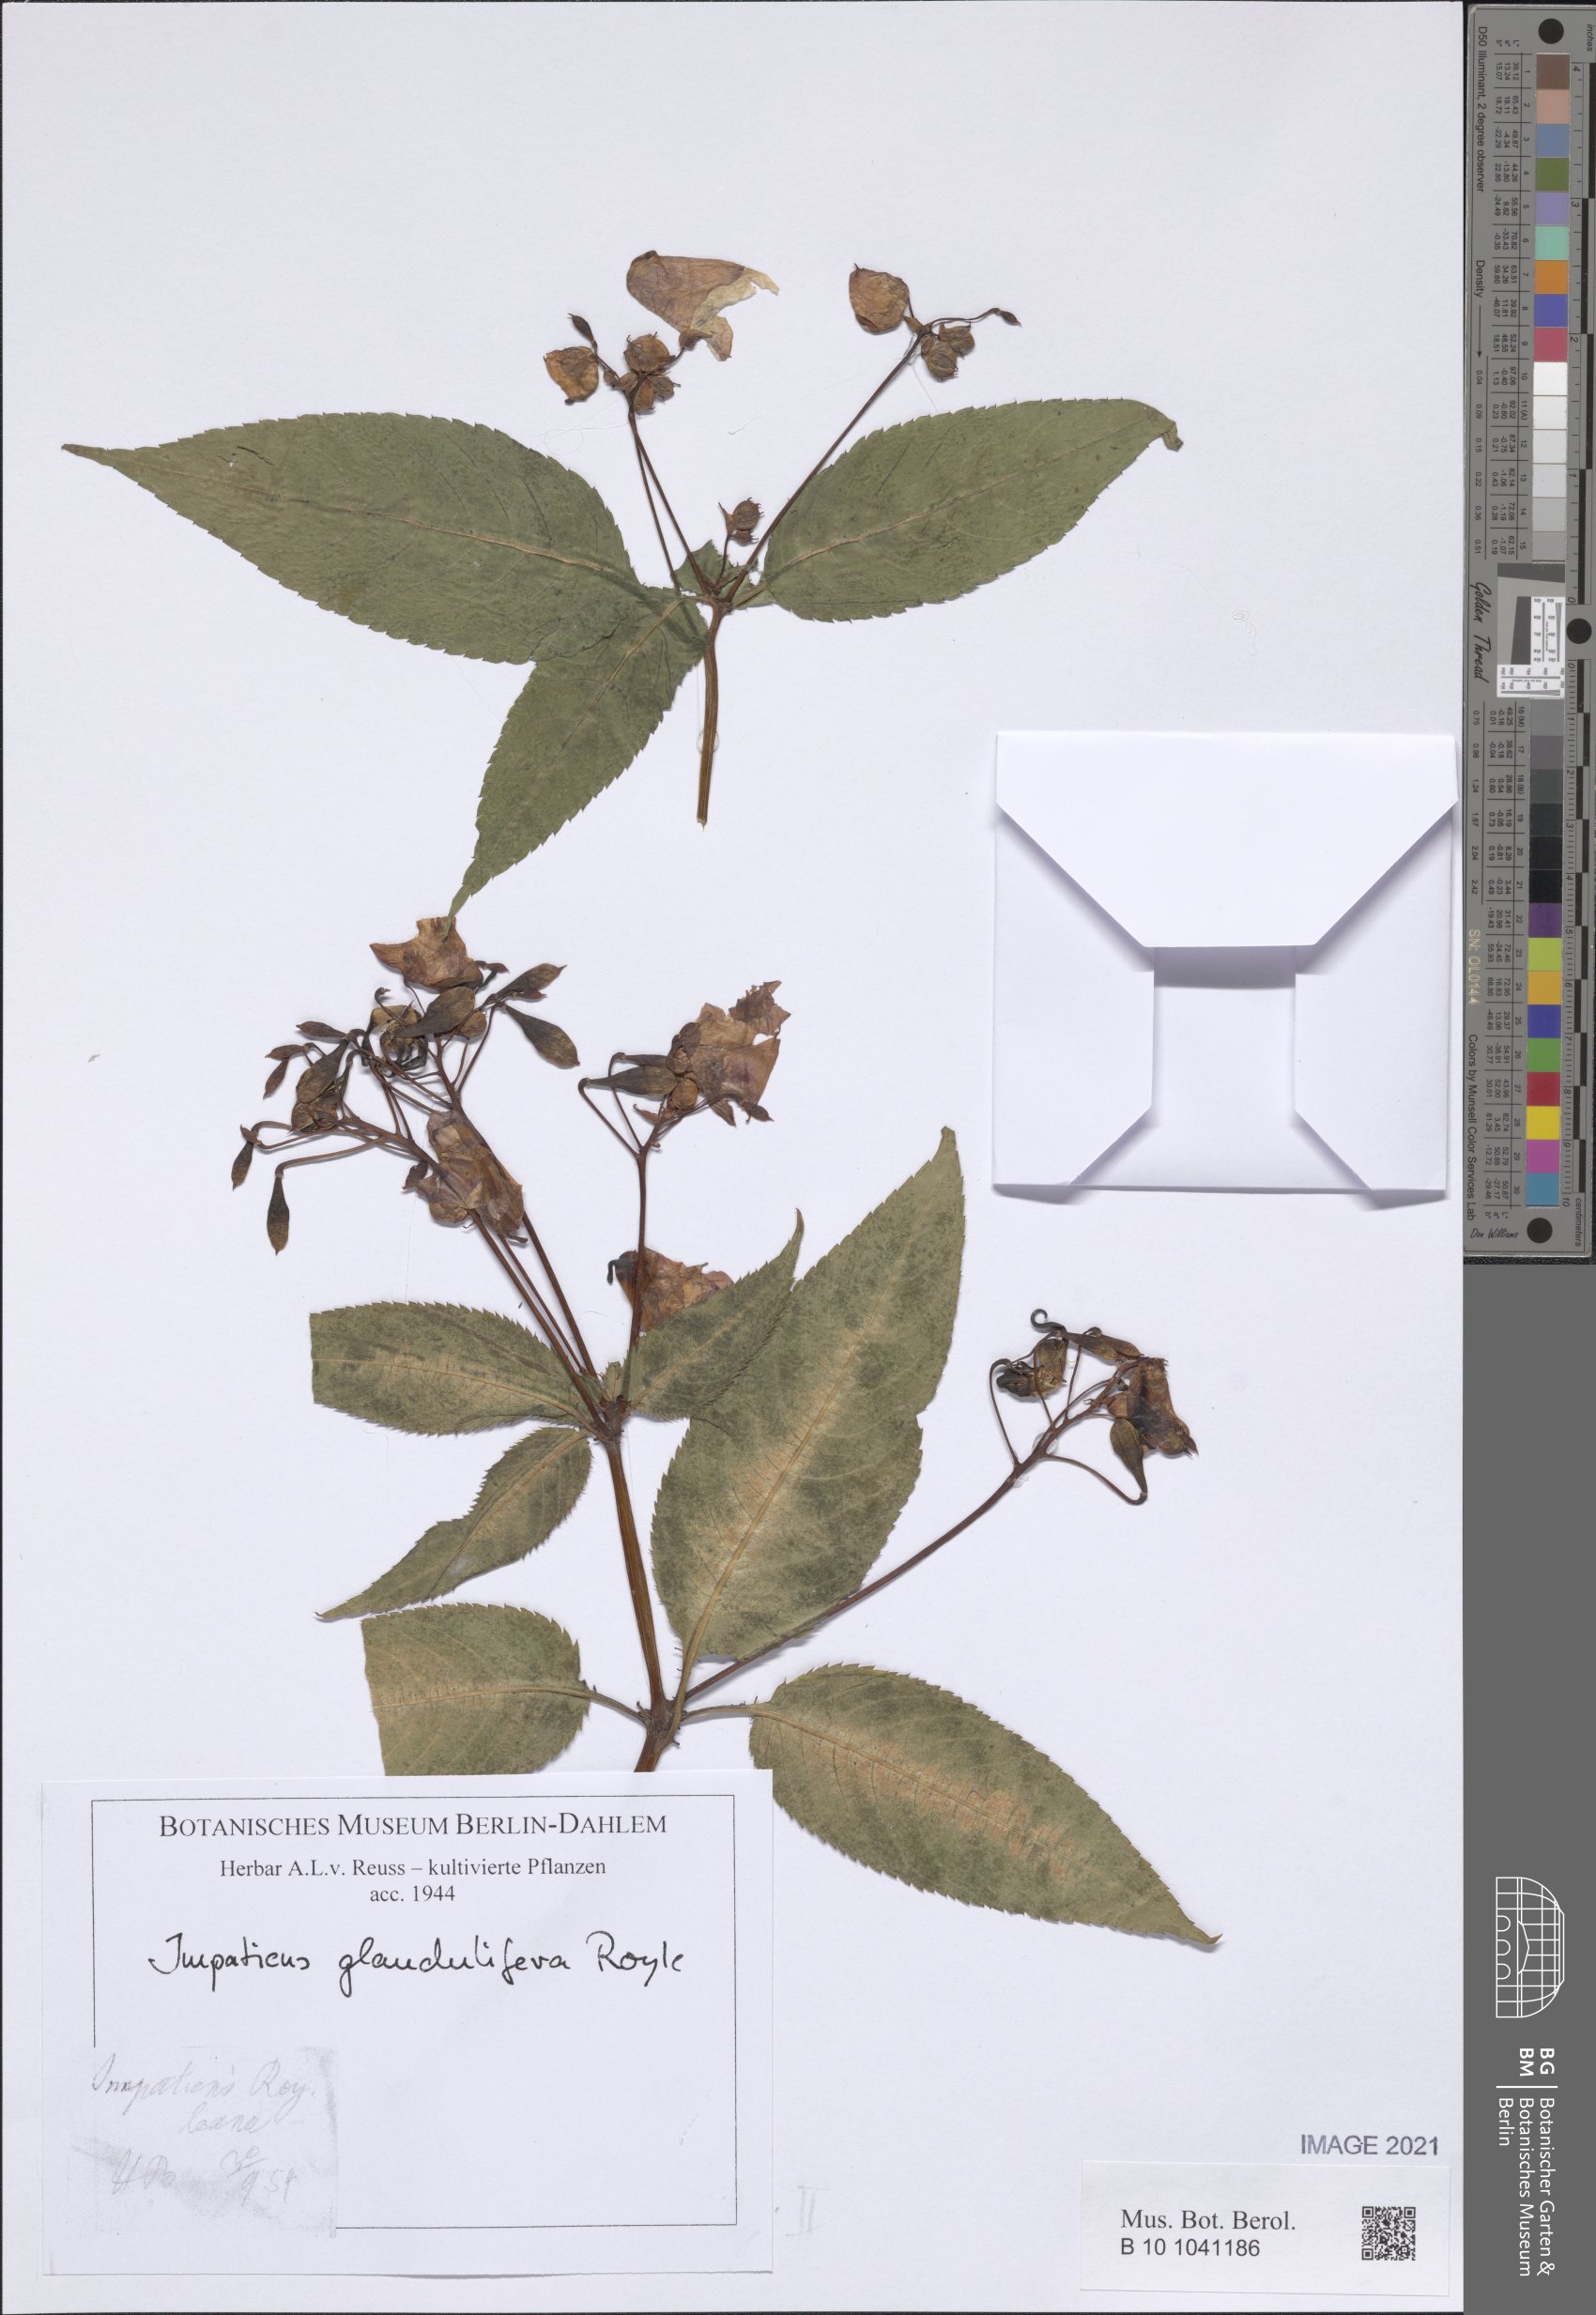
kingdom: Plantae
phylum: Tracheophyta
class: Magnoliopsida
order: Ericales
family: Balsaminaceae
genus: Impatiens
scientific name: Impatiens glandulifera
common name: Himalayan balsam
